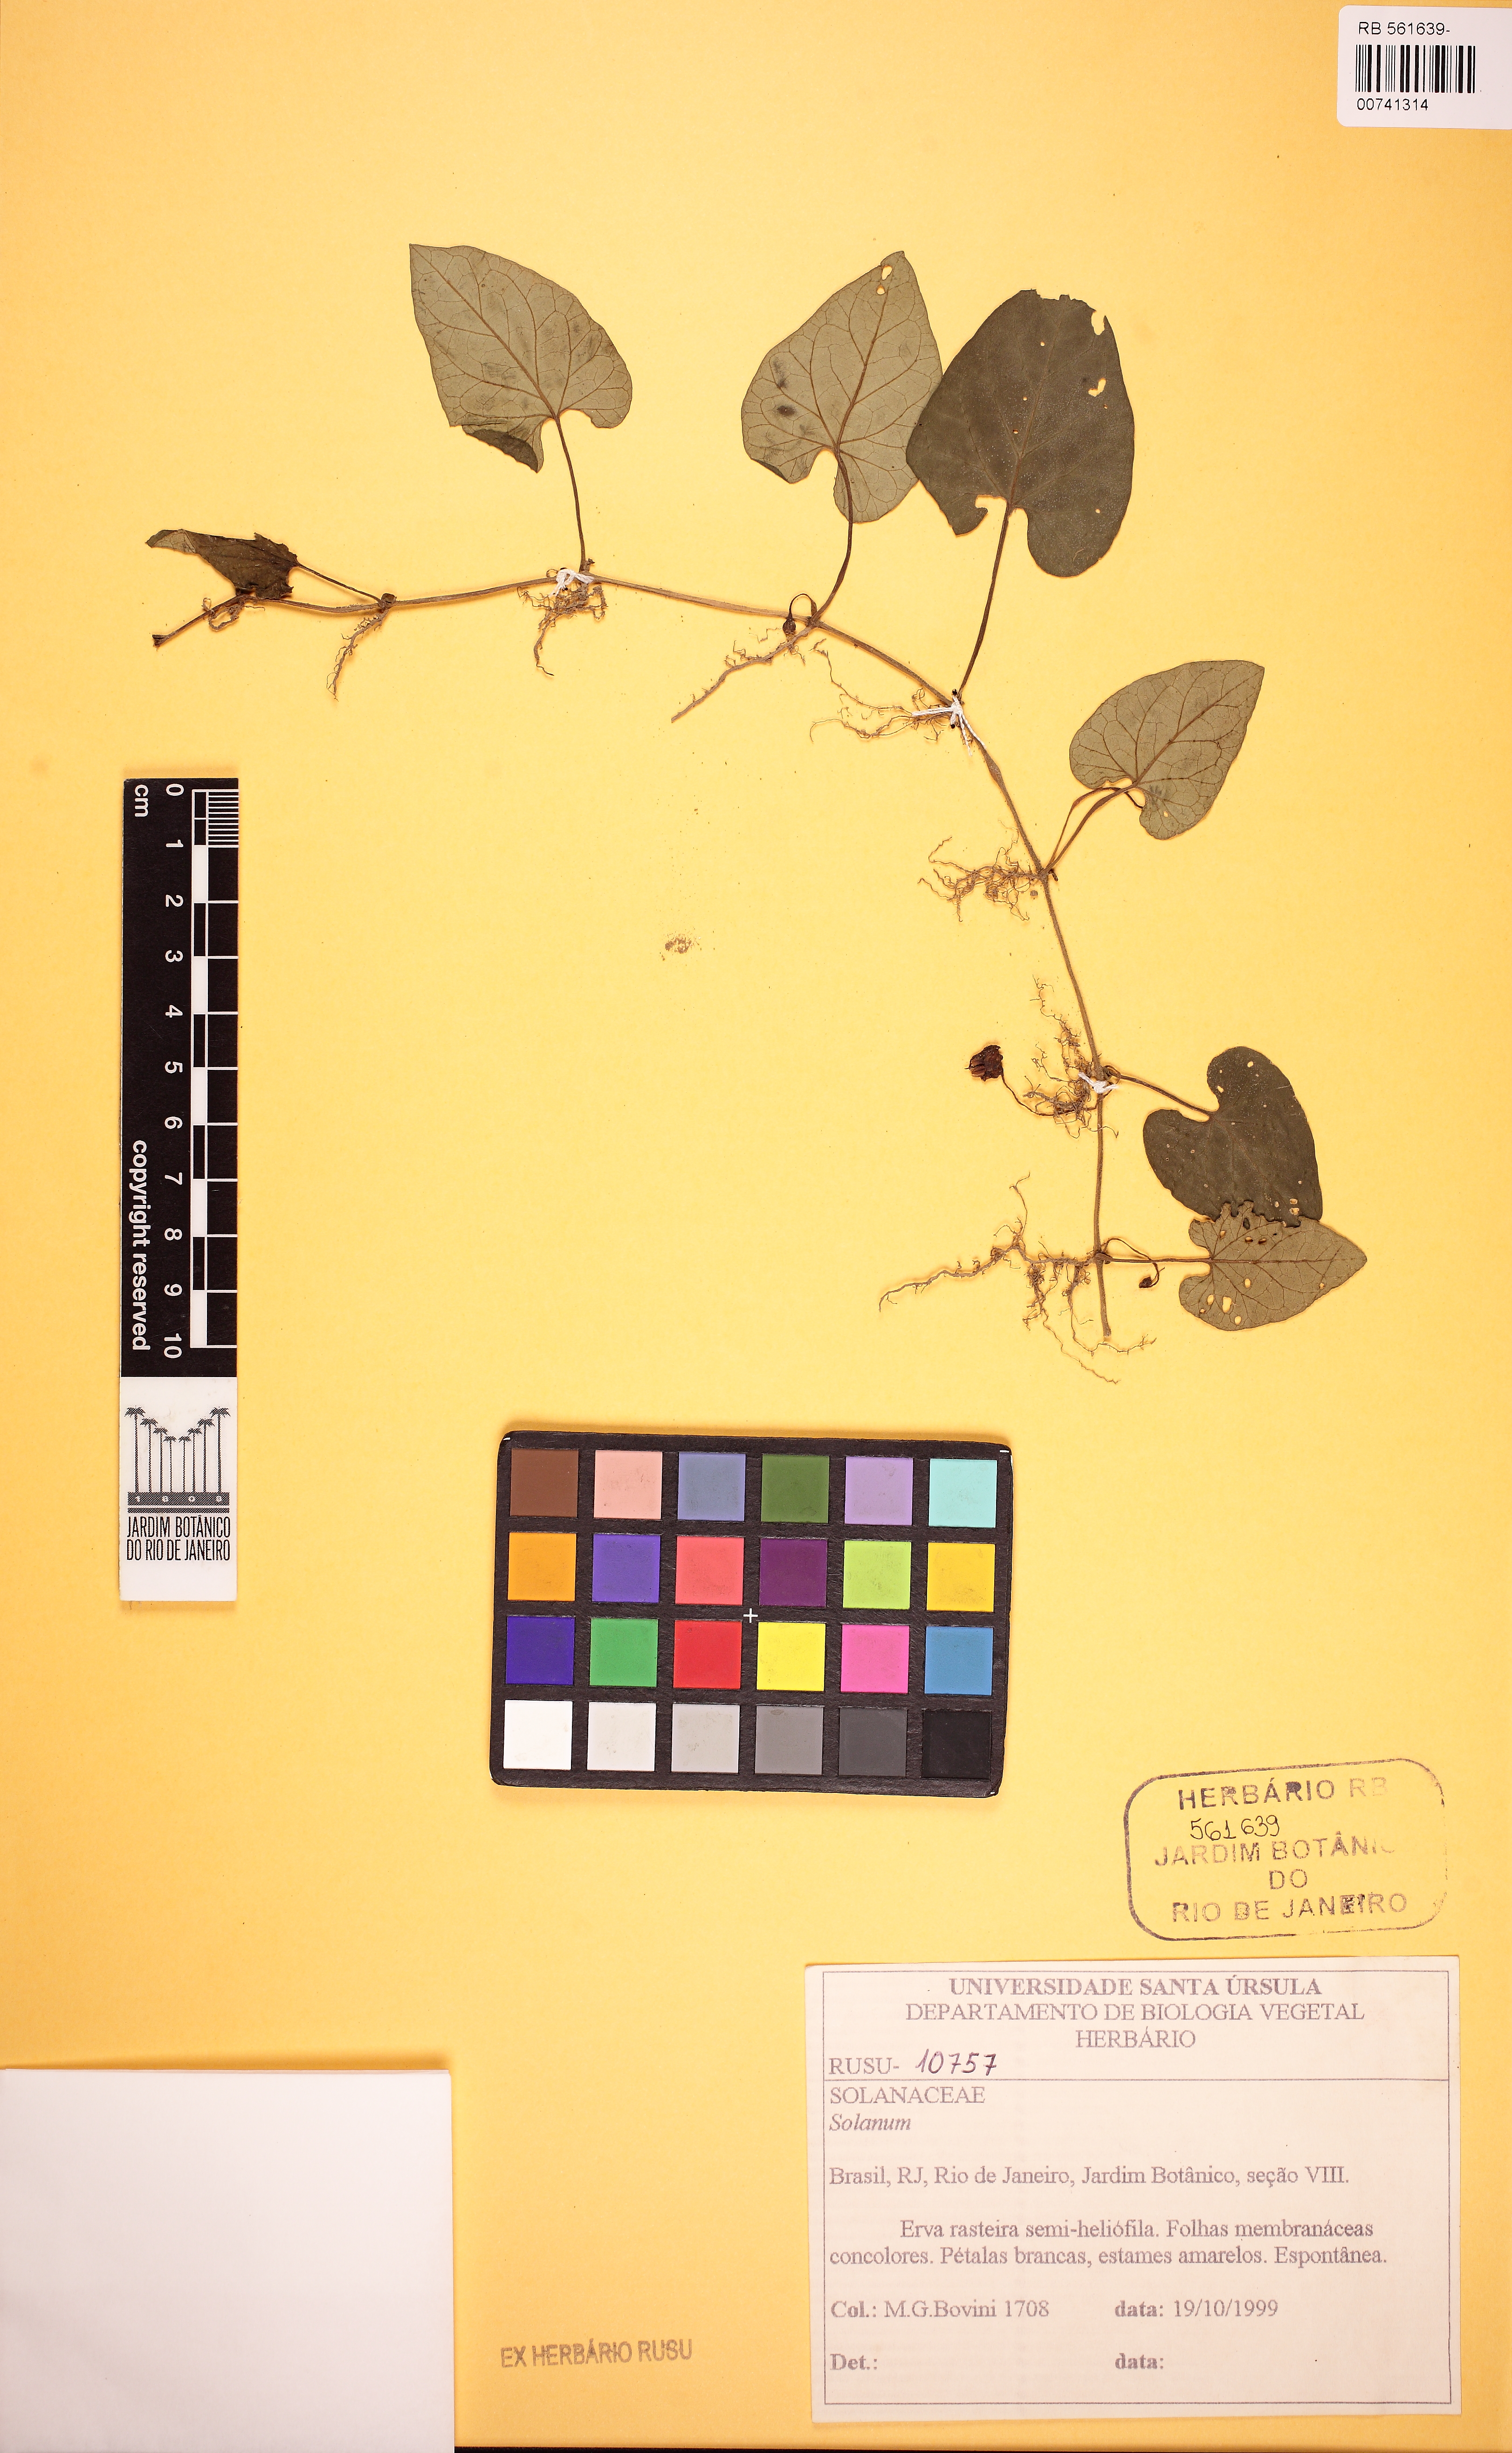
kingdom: Plantae
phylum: Tracheophyta
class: Magnoliopsida
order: Solanales
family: Solanaceae
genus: Lycianthes
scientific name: Lycianthes repens
